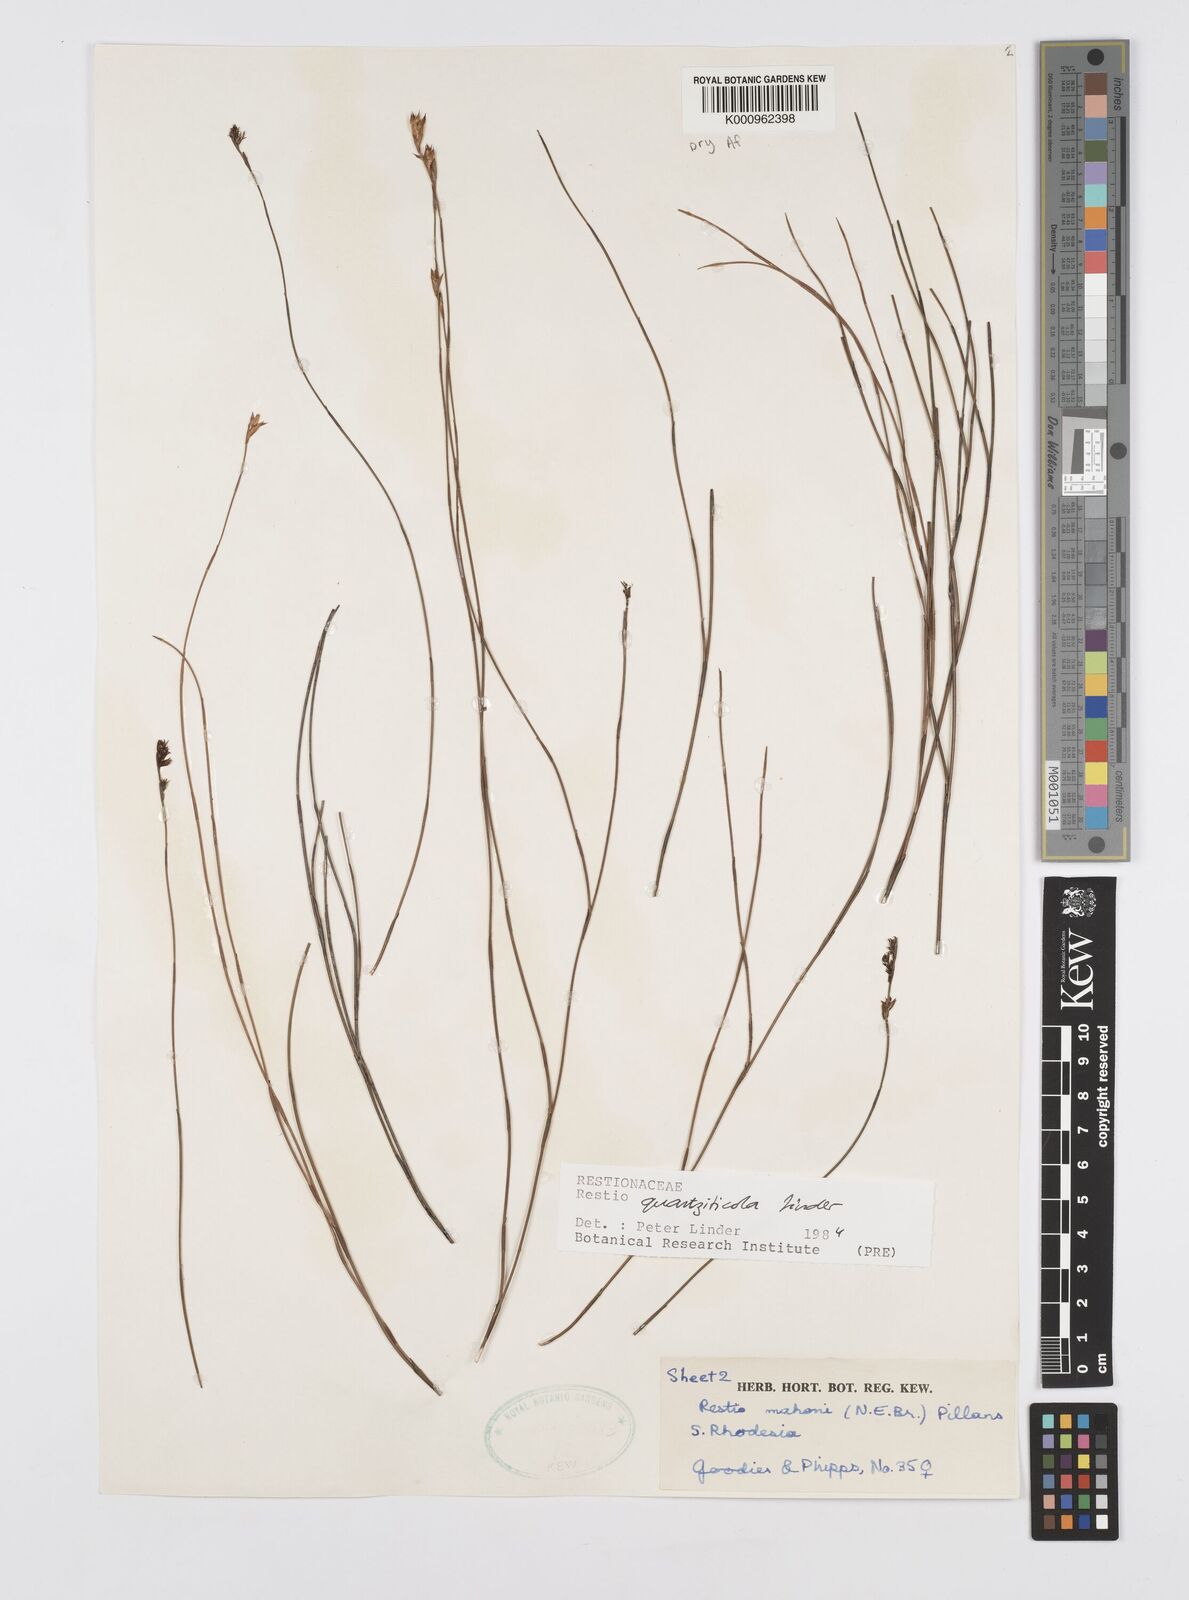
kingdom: Plantae
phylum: Tracheophyta
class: Liliopsida
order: Poales
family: Restionaceae
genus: Platycaulos
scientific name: Platycaulos quartziticola
